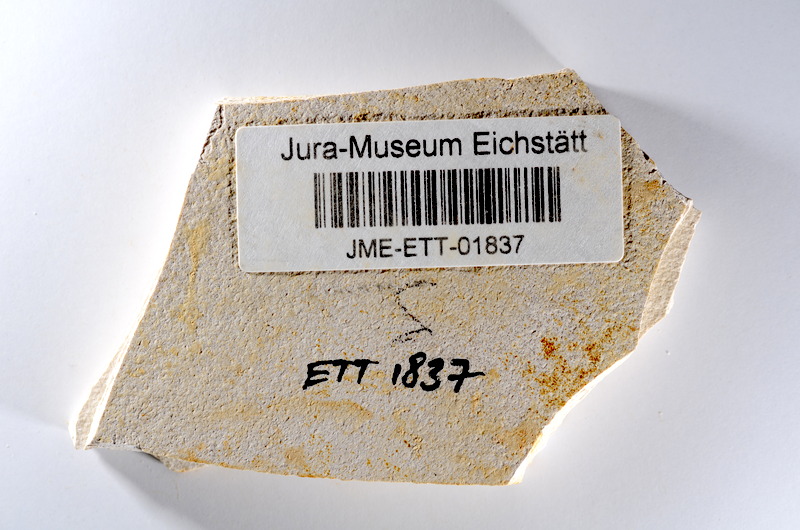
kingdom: Animalia
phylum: Chordata
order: Salmoniformes
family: Orthogonikleithridae
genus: Orthogonikleithrus
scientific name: Orthogonikleithrus hoelli
